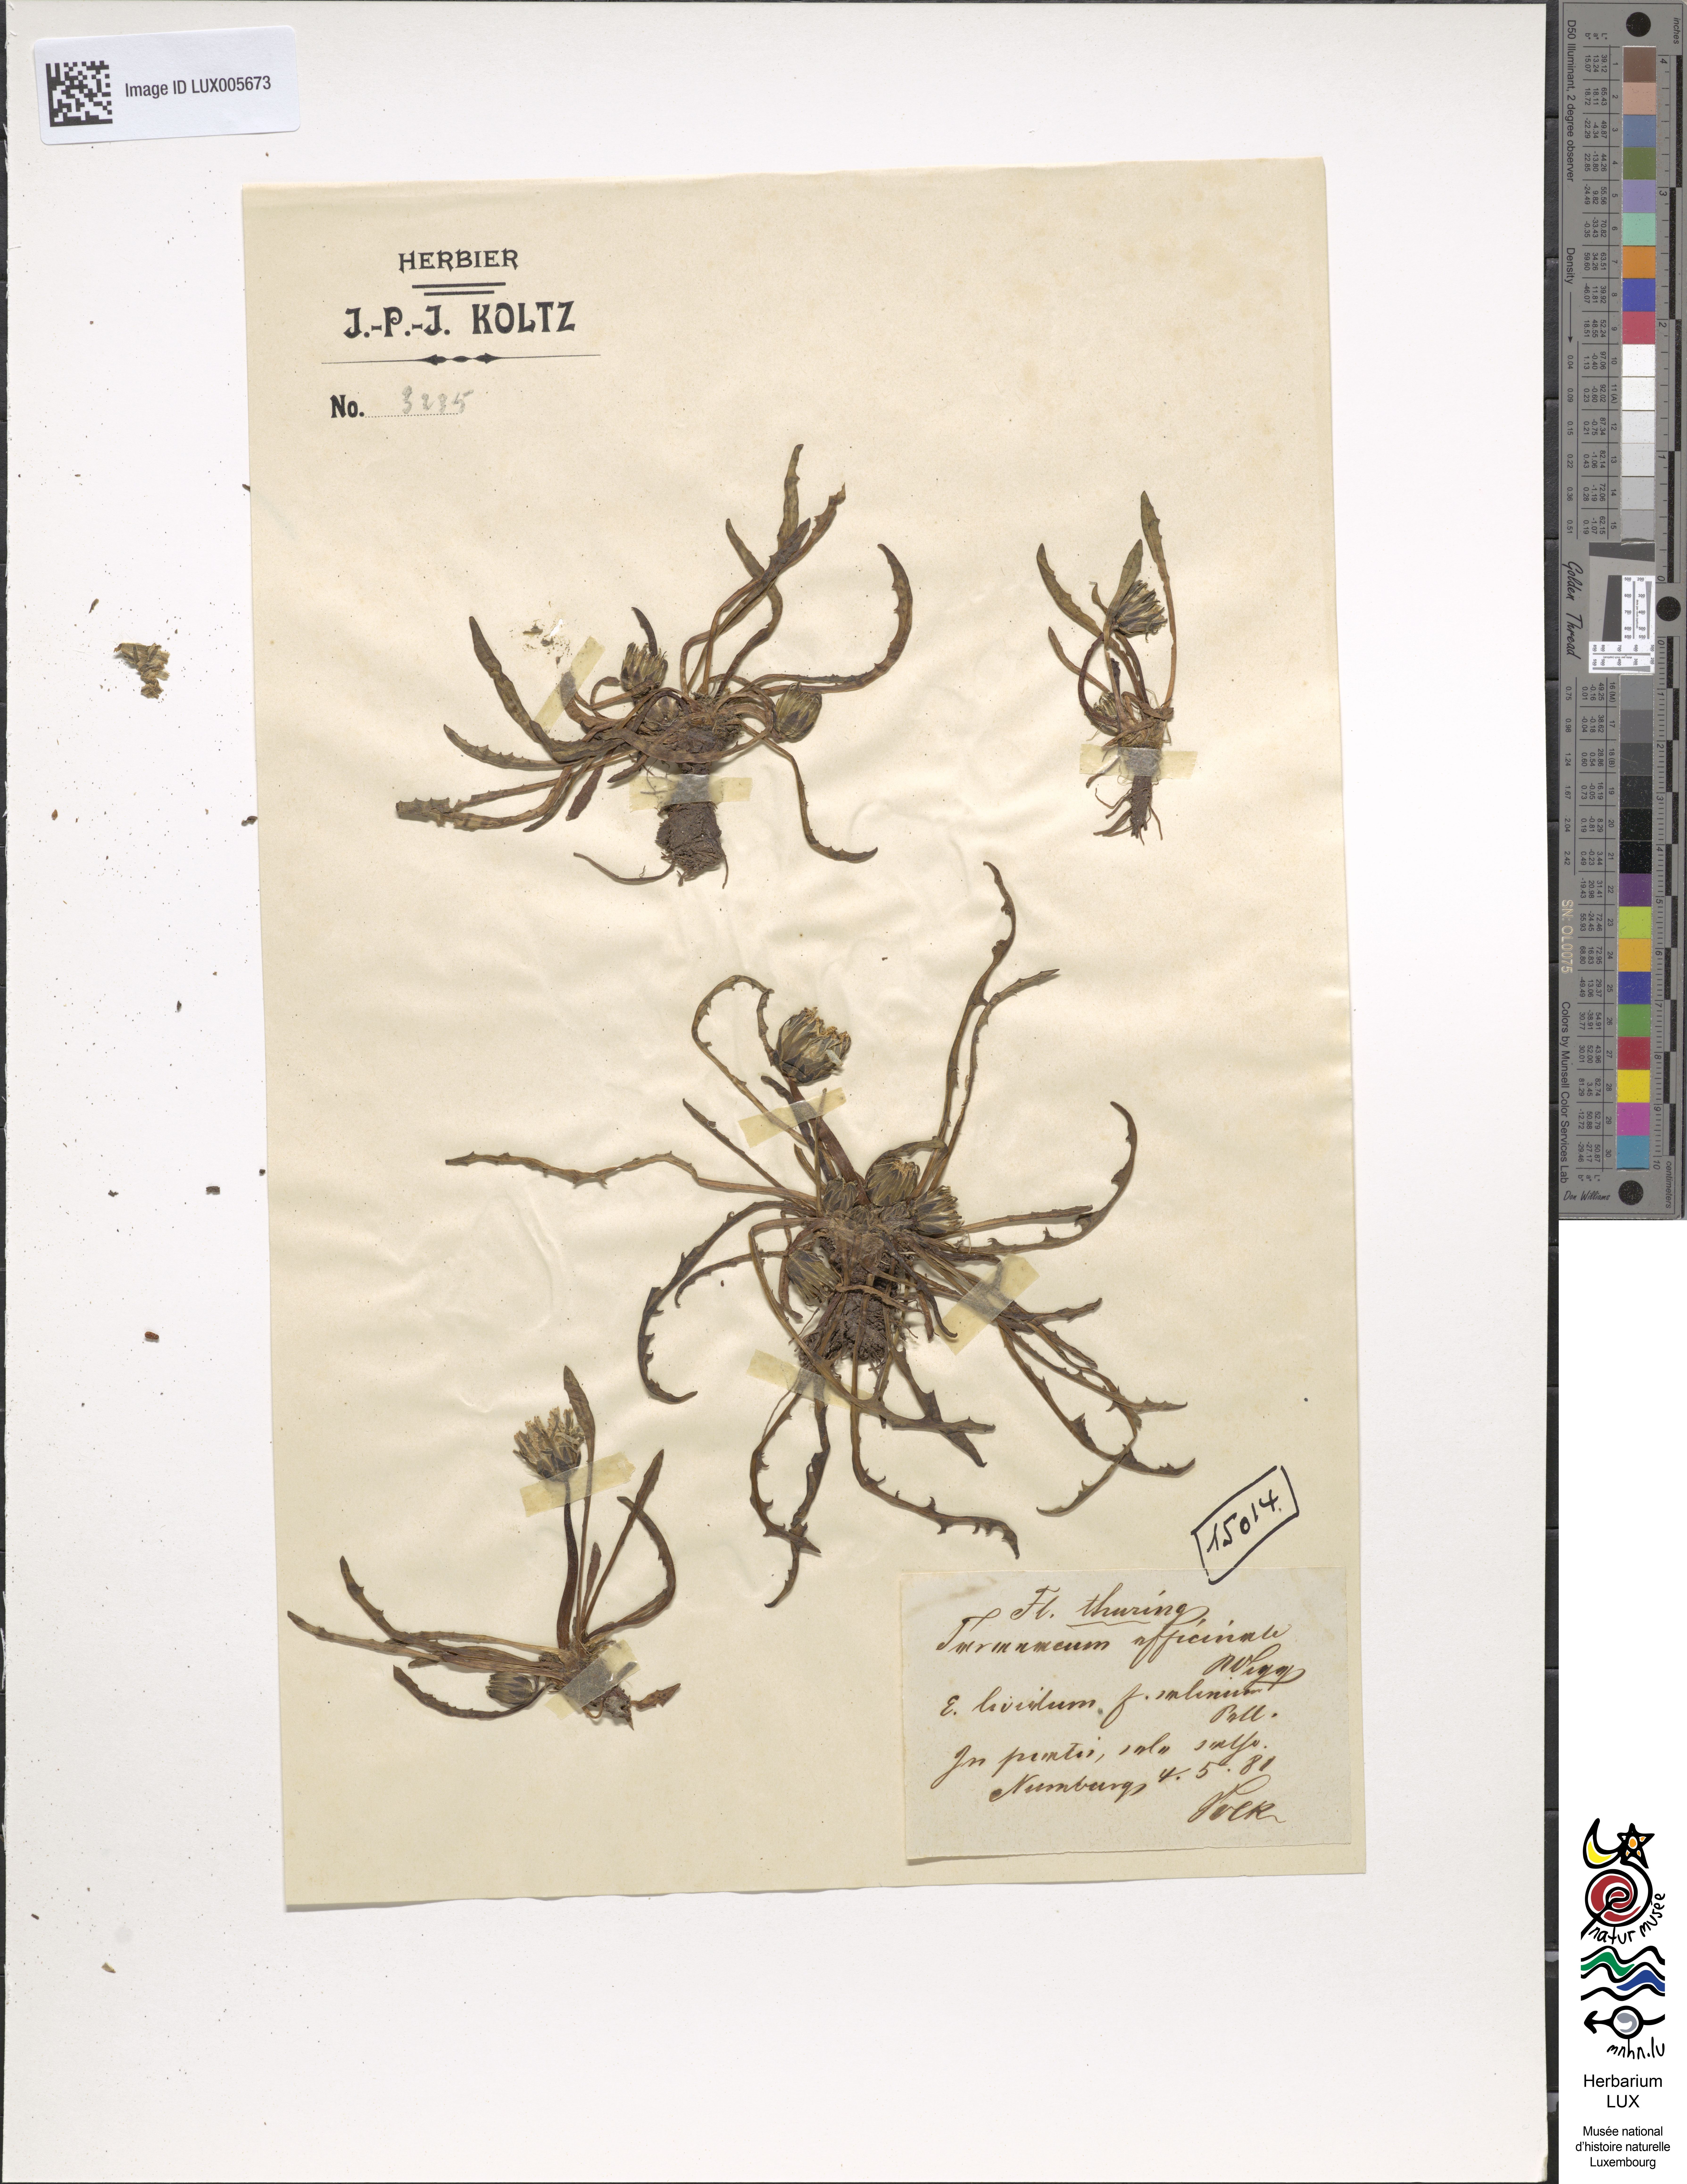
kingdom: Plantae
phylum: Tracheophyta
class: Magnoliopsida
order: Asterales
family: Asteraceae
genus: Taraxacum
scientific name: Taraxacum palustre
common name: Marsh dandelion
